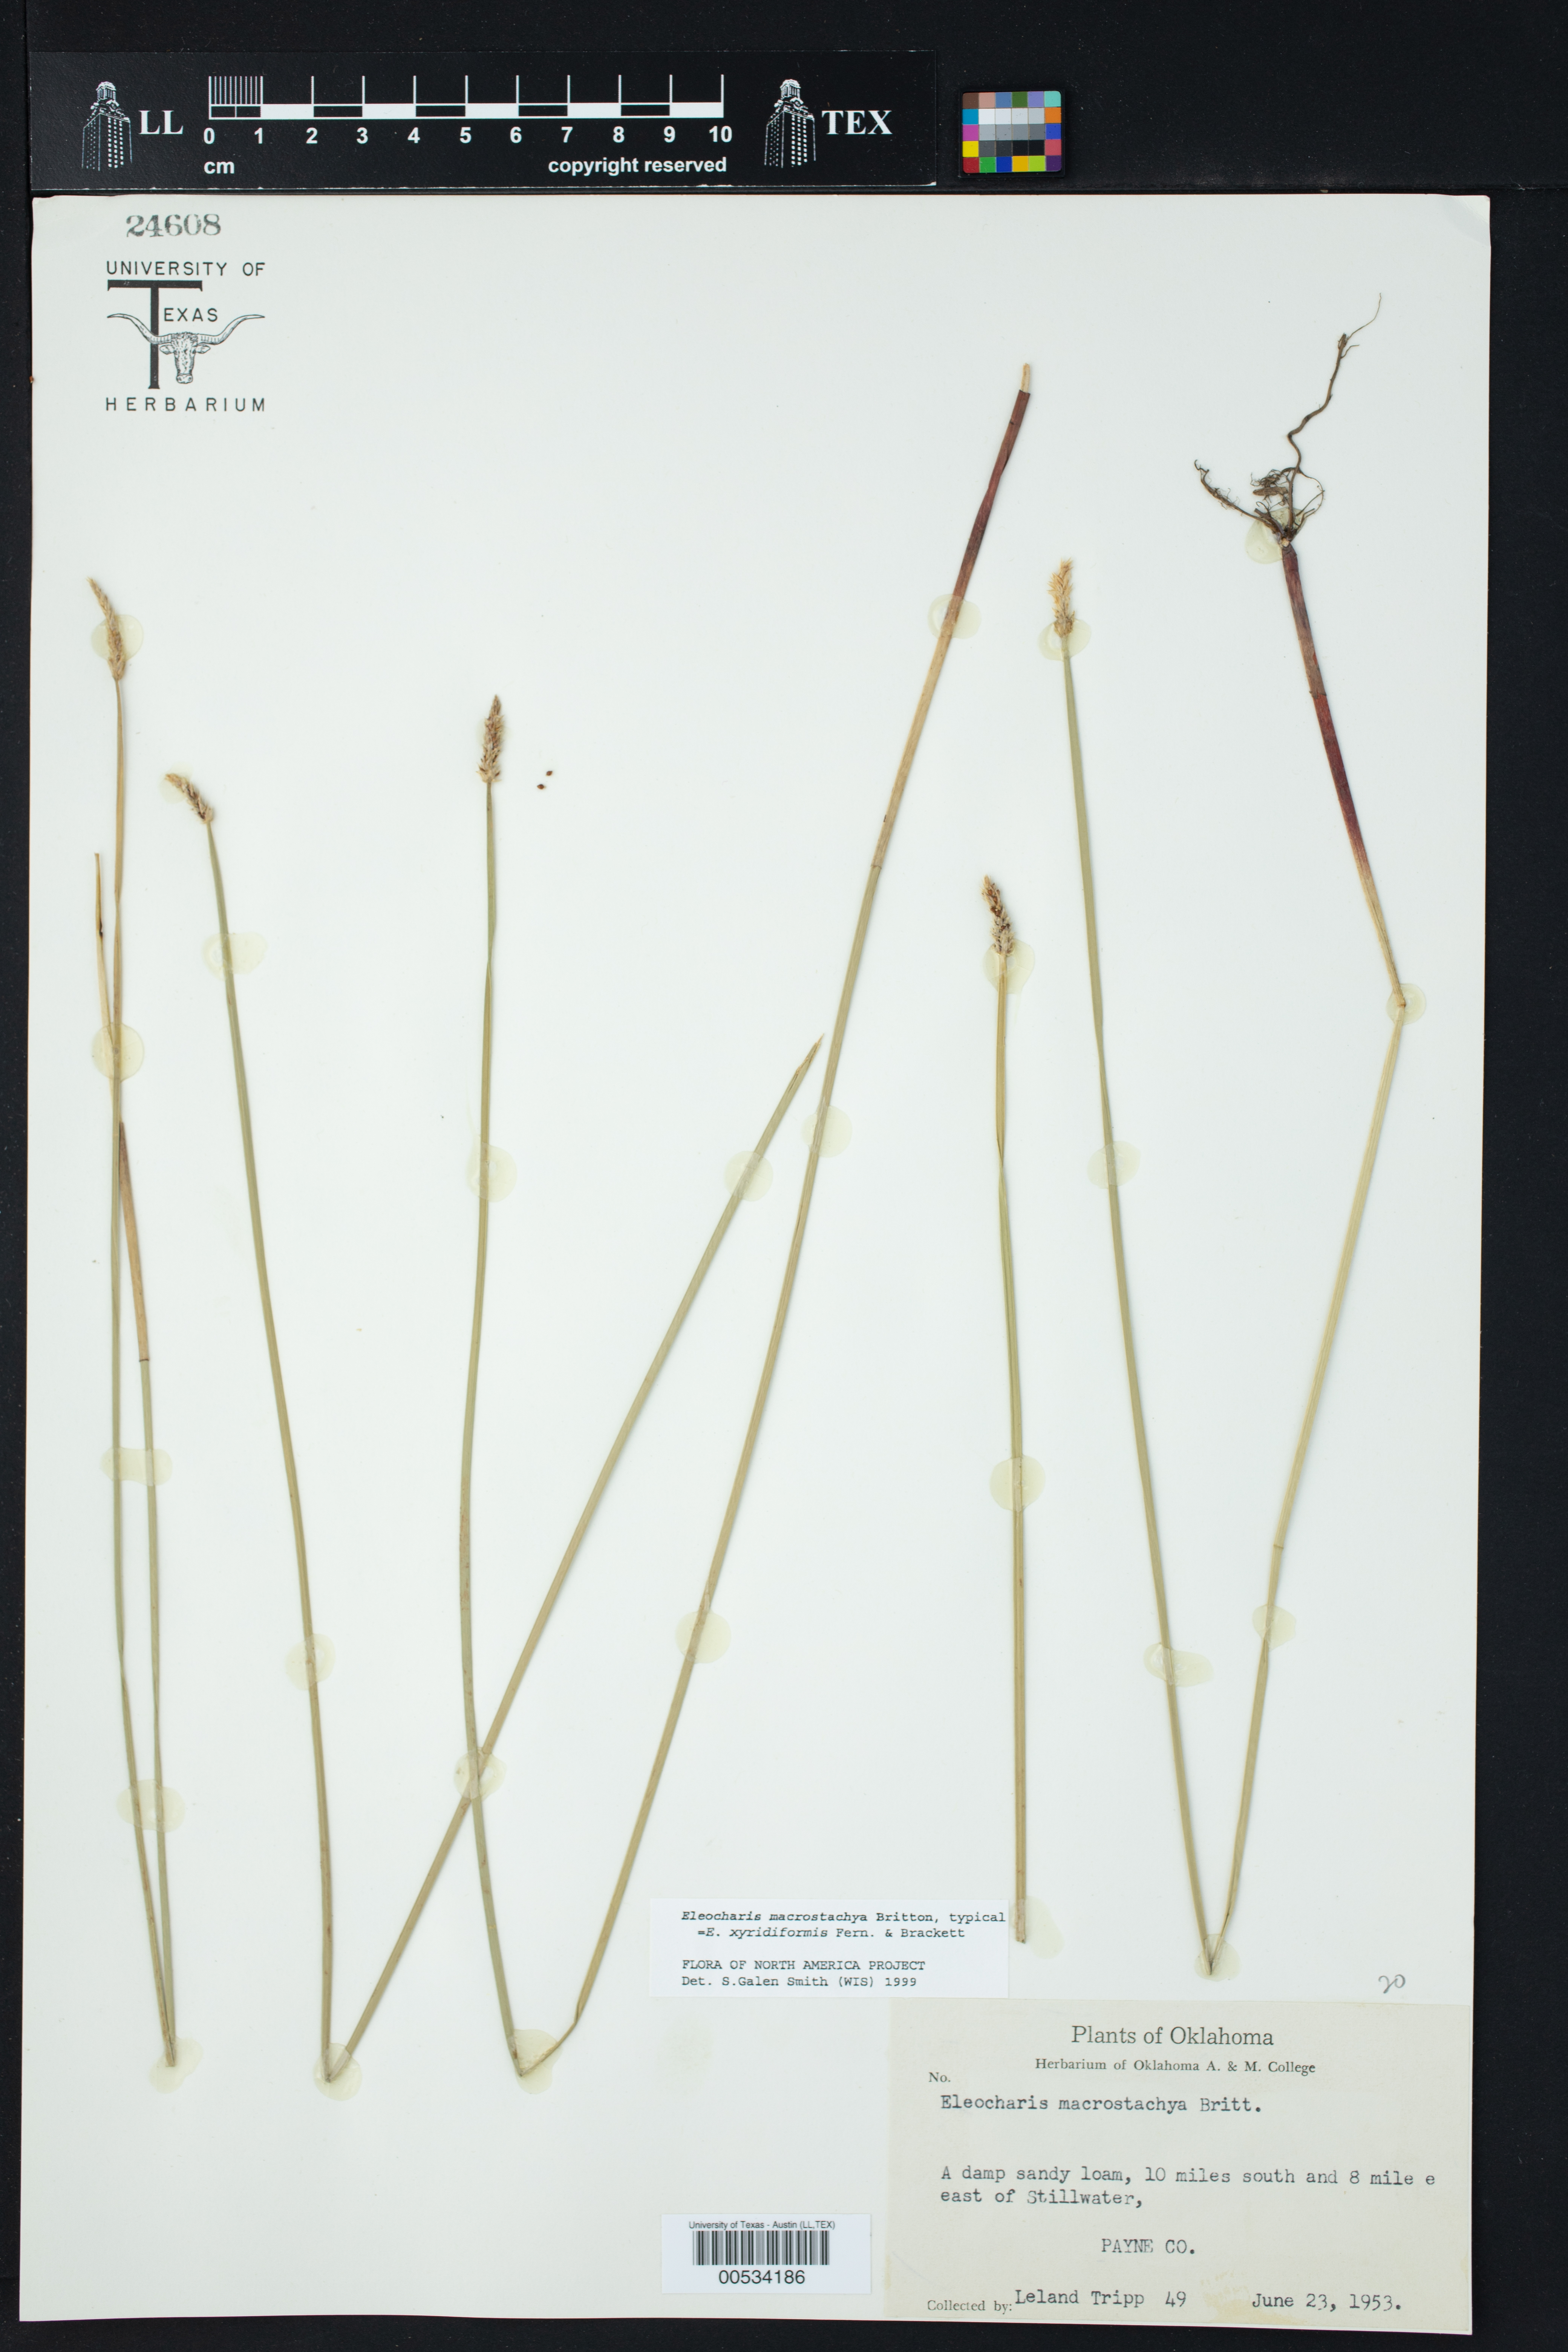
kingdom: Plantae
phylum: Tracheophyta
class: Liliopsida
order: Poales
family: Cyperaceae
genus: Eleocharis
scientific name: Eleocharis macrostachya
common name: Pale spikerush
